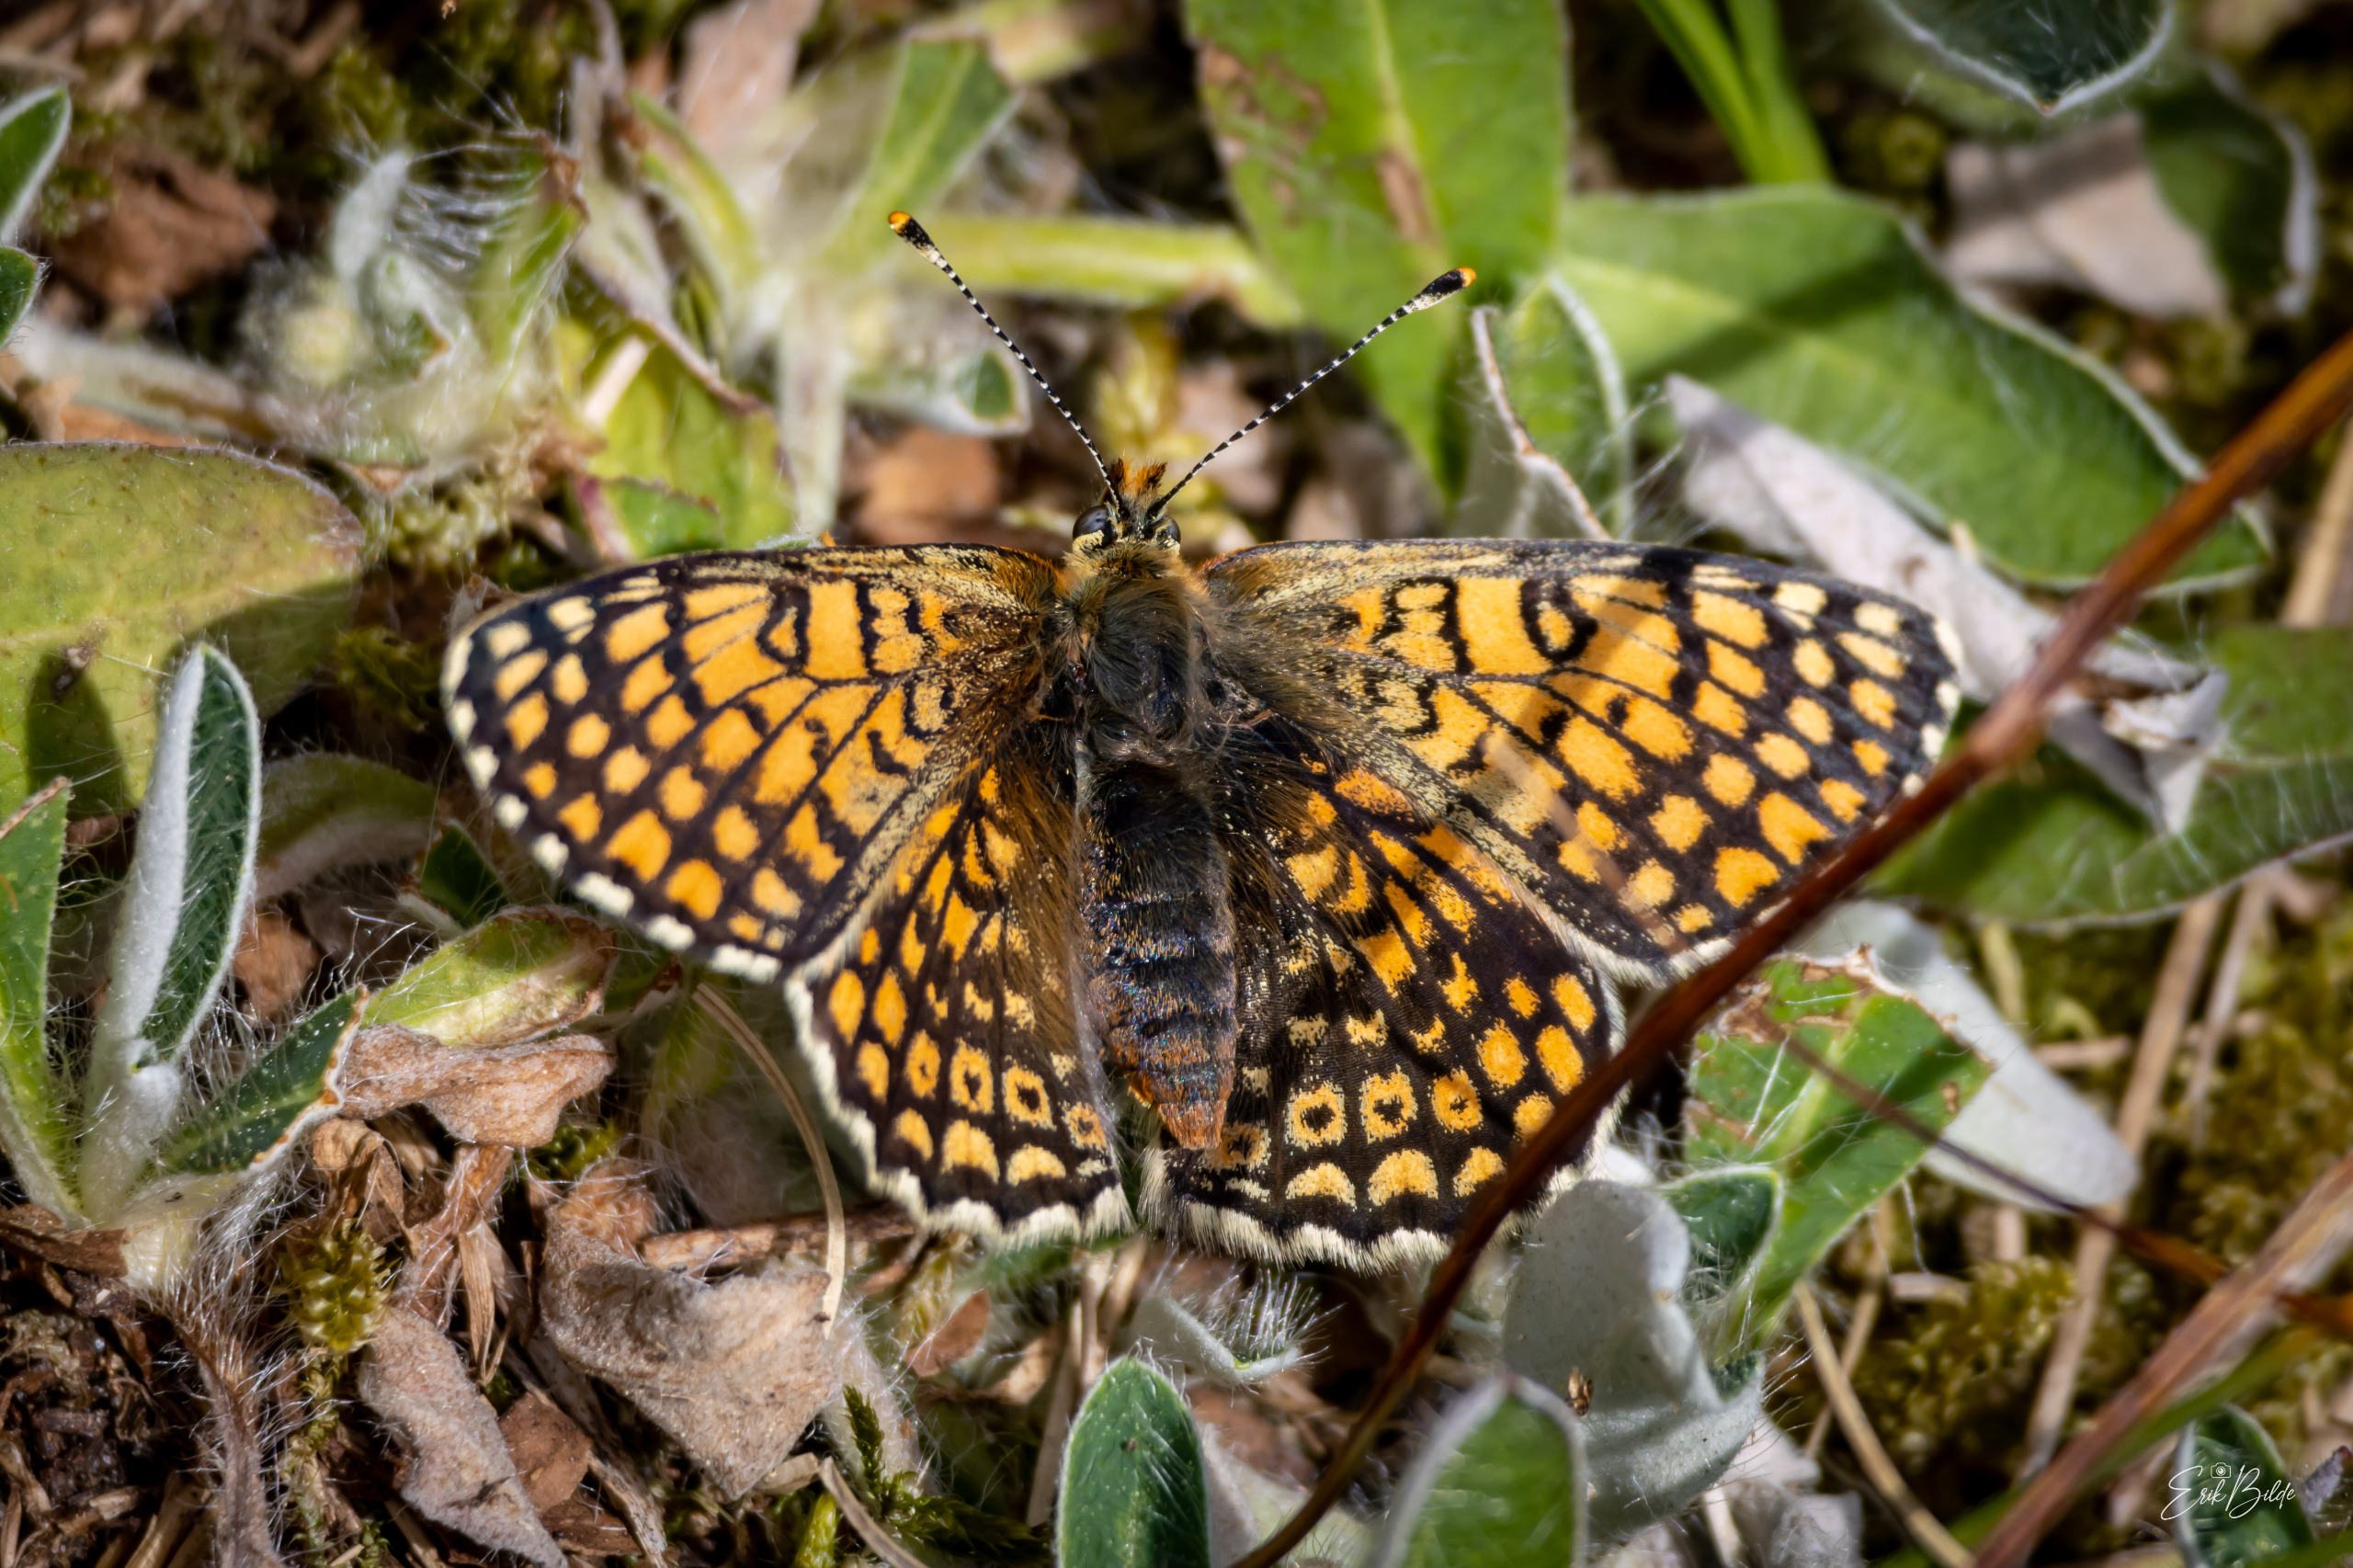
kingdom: Animalia
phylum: Arthropoda
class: Insecta
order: Lepidoptera
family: Nymphalidae
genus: Melitaea
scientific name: Melitaea cinxia
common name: Okkergul pletvinge
